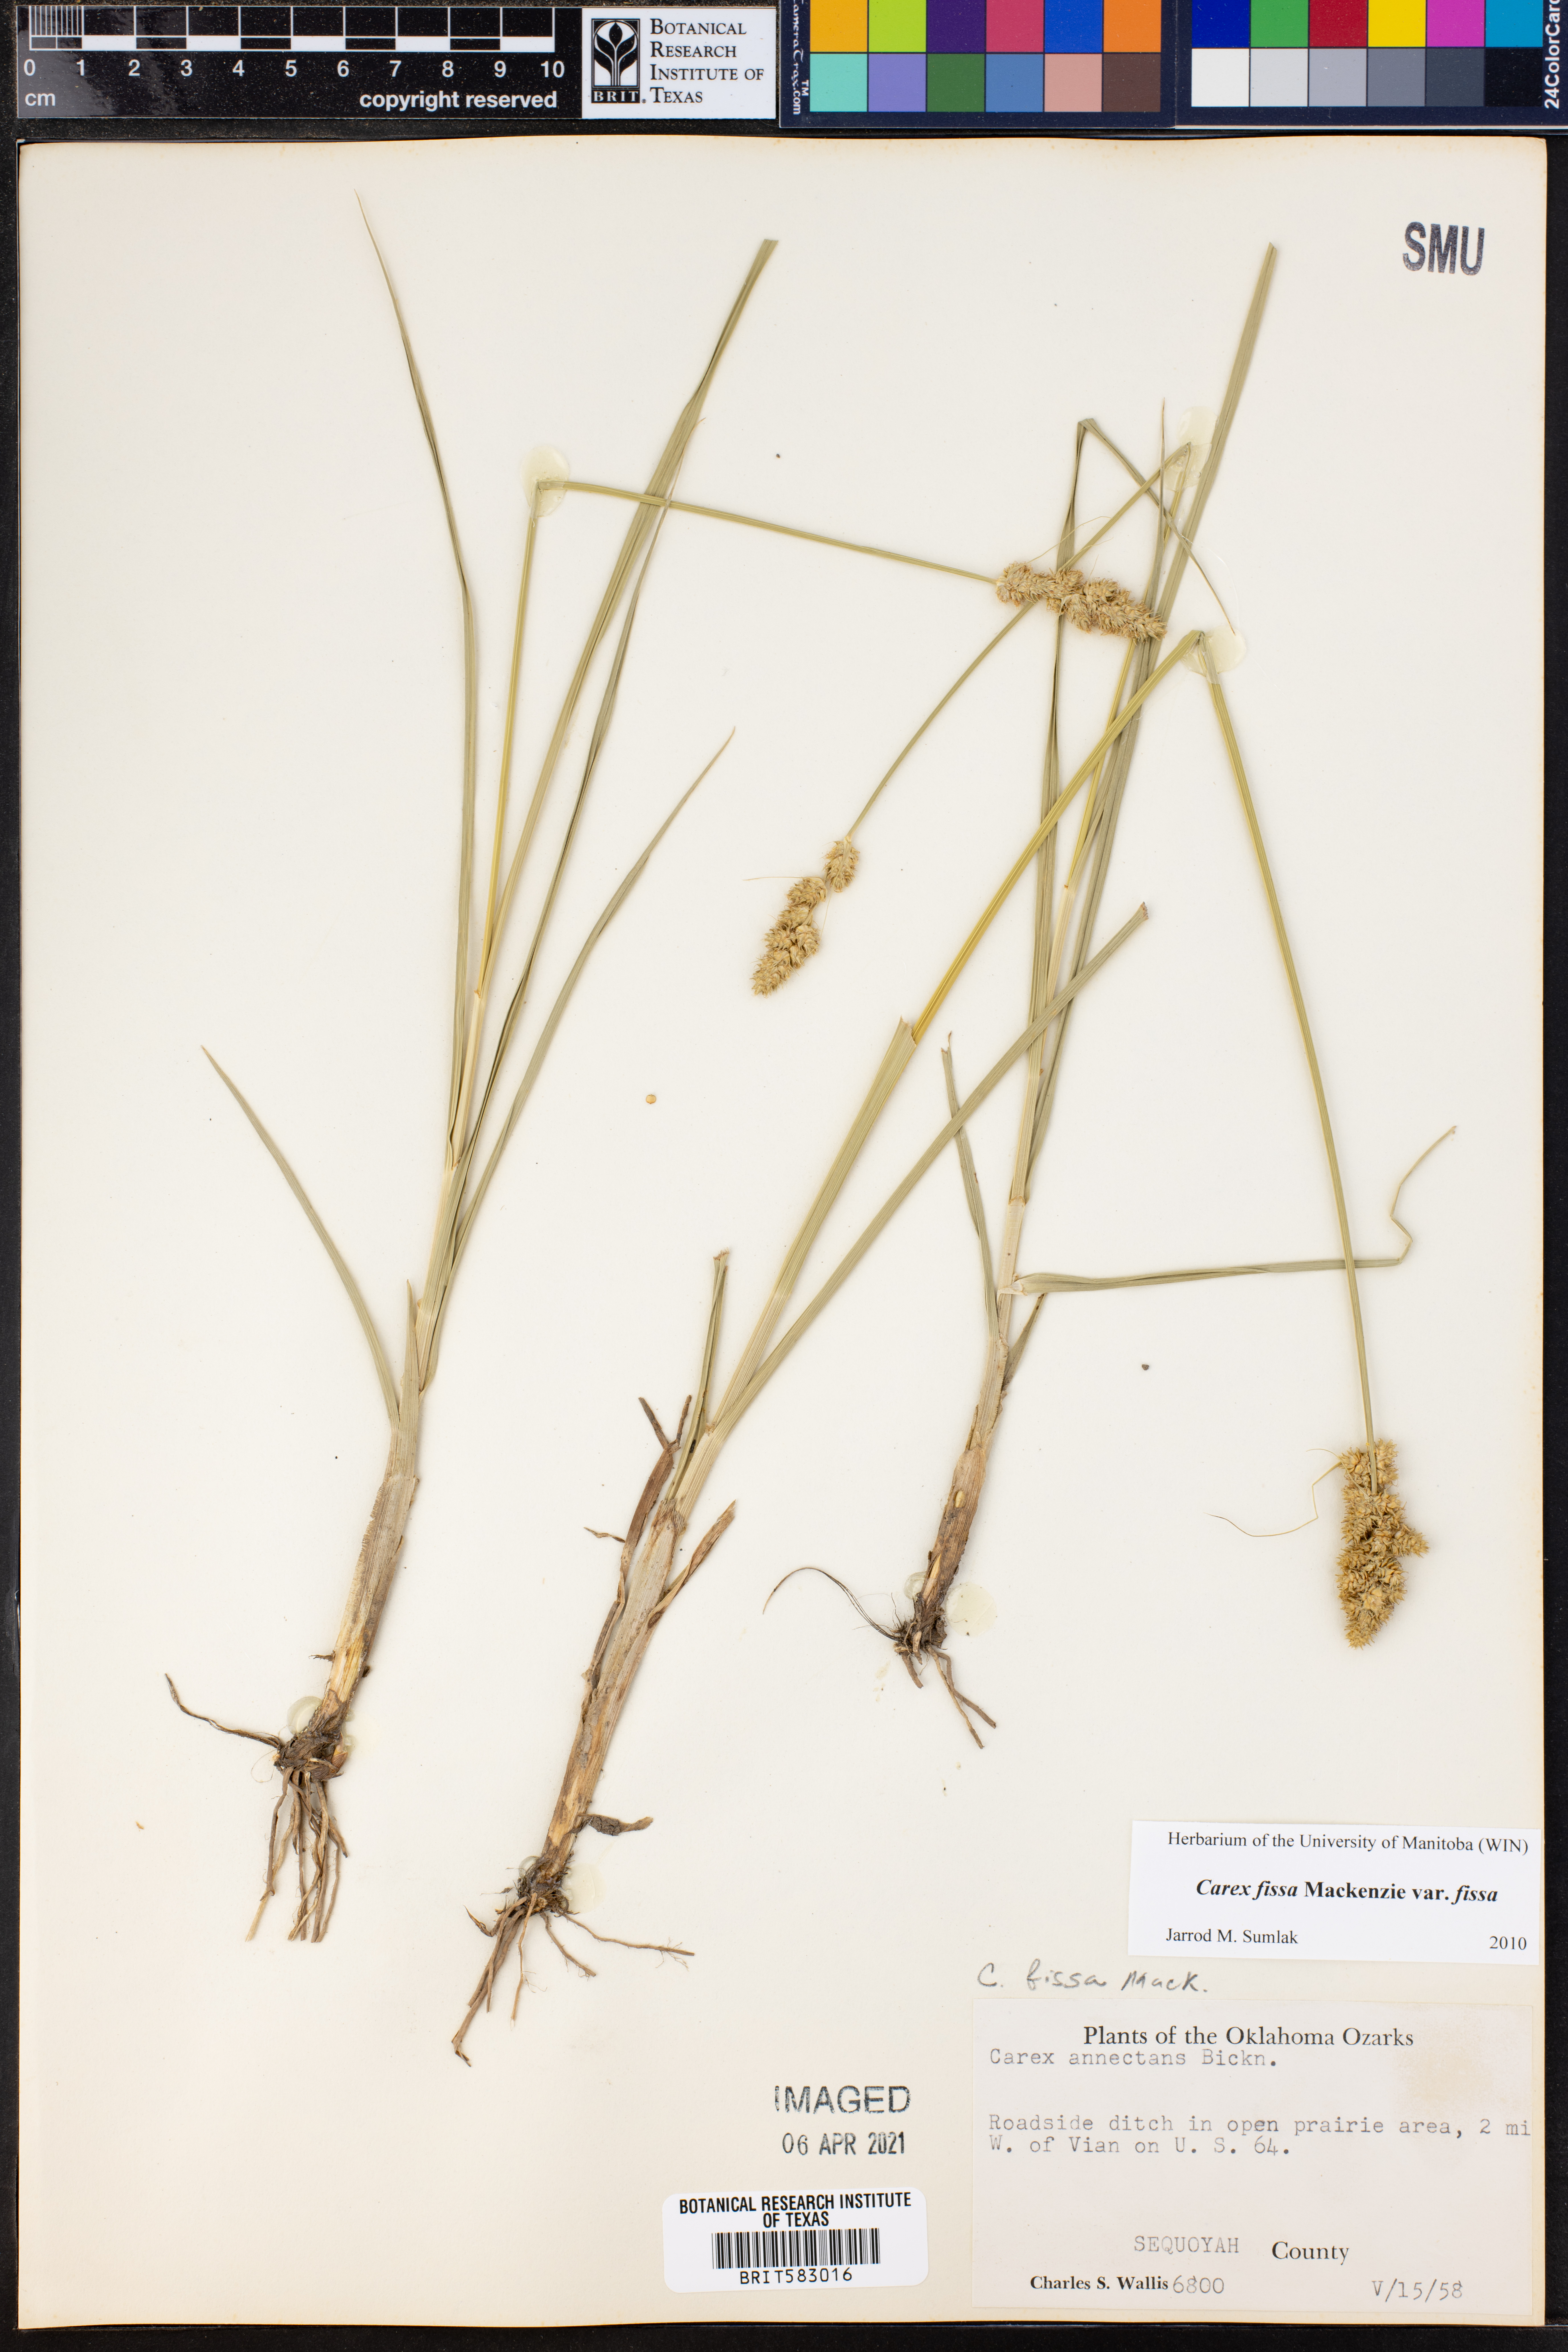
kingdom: Plantae
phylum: Tracheophyta
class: Liliopsida
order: Poales
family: Cyperaceae
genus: Carex
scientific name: Carex fissa
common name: Hammock sedge
